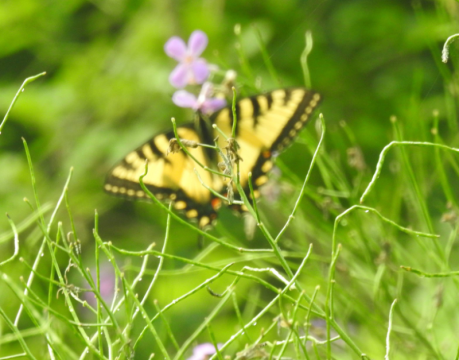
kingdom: Animalia
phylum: Arthropoda
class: Insecta
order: Lepidoptera
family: Papilionidae
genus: Pterourus
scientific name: Pterourus canadensis
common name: Canadian Tiger Swallowtail
